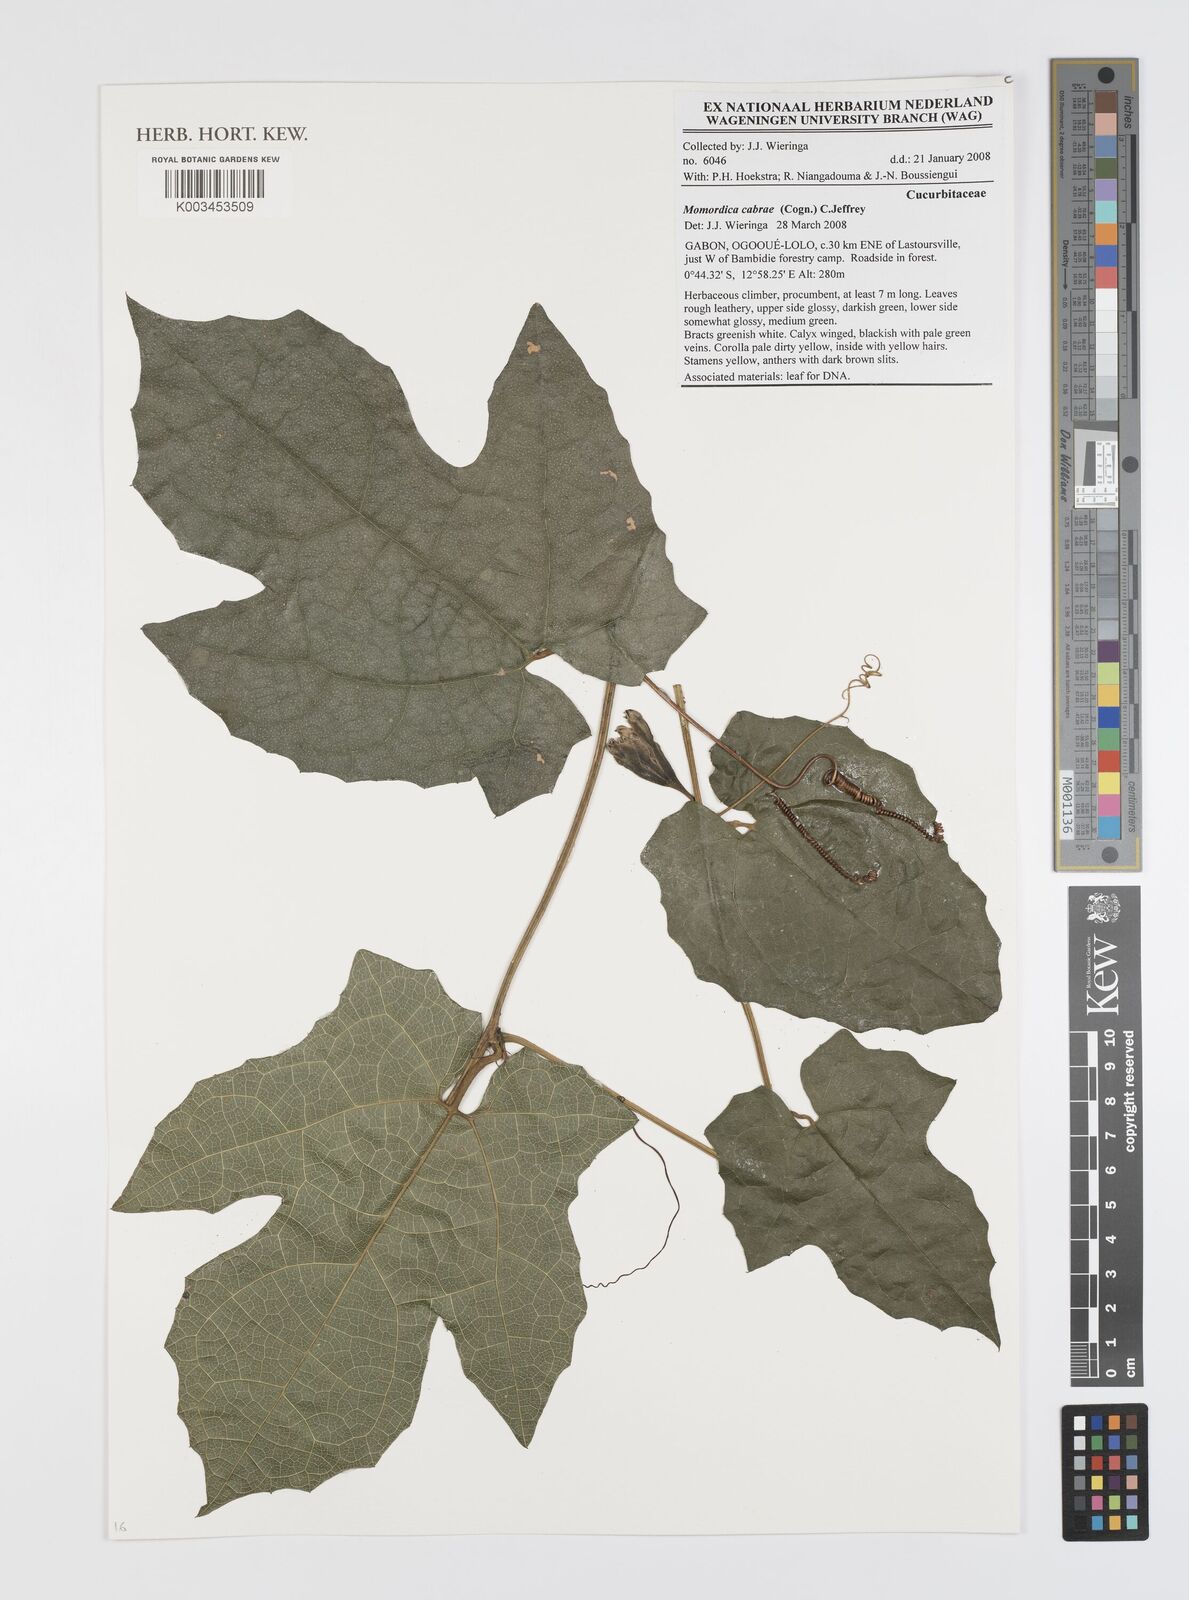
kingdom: Plantae
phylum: Tracheophyta
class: Magnoliopsida
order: Cucurbitales
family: Cucurbitaceae
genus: Momordica
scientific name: Momordica cabrae
